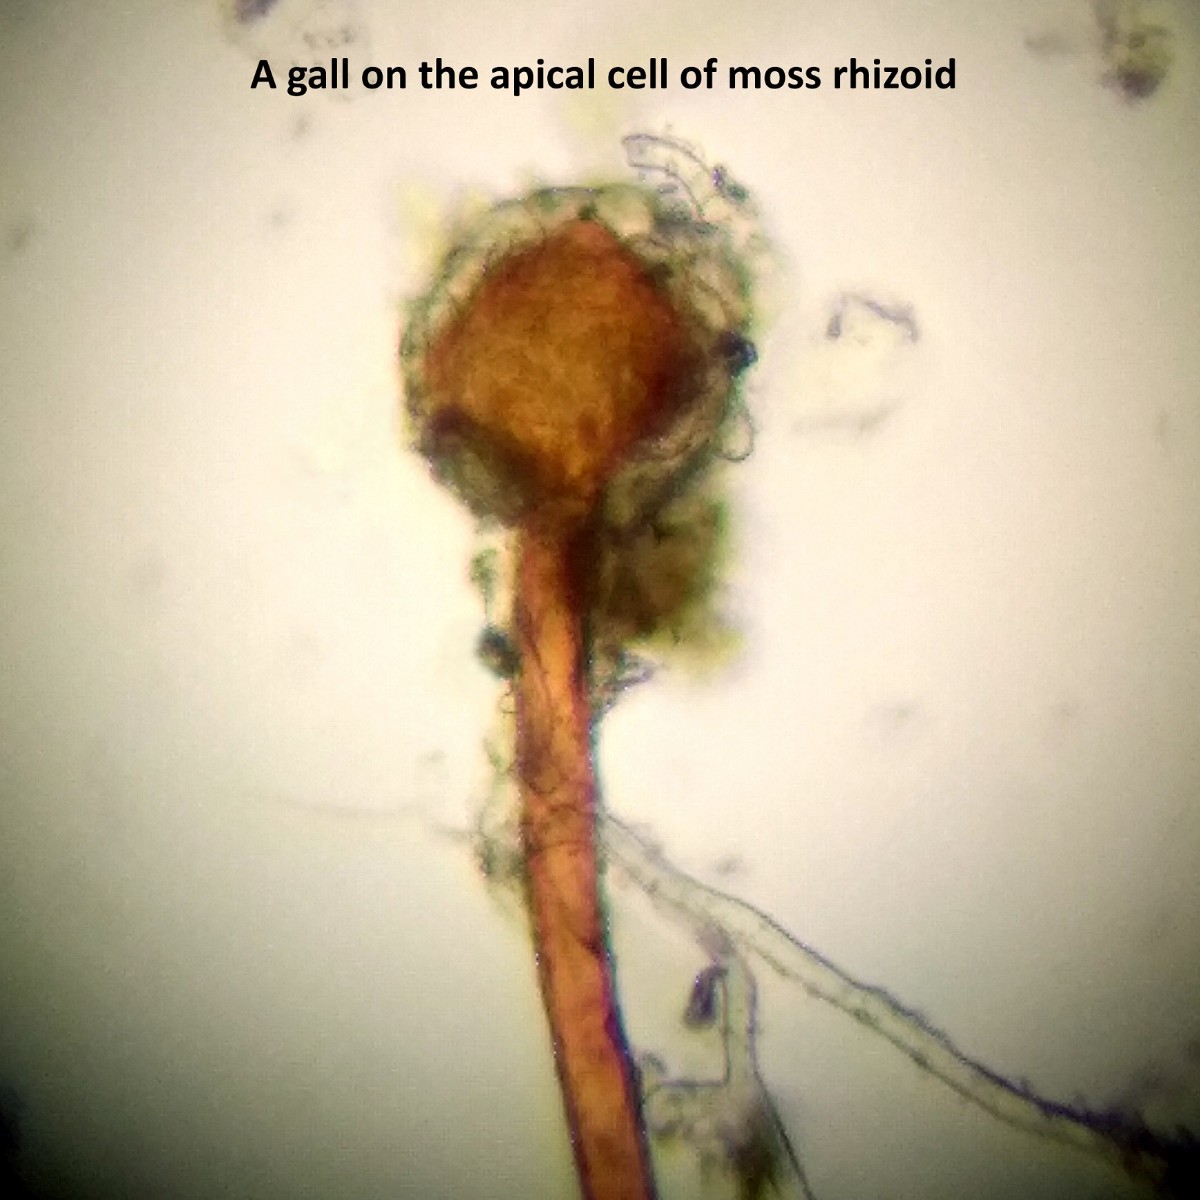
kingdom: Fungi
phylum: Ascomycota
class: Pezizomycetes
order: Pezizales
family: Pyronemataceae
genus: Lamprospora
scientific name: Lamprospora wrightii
